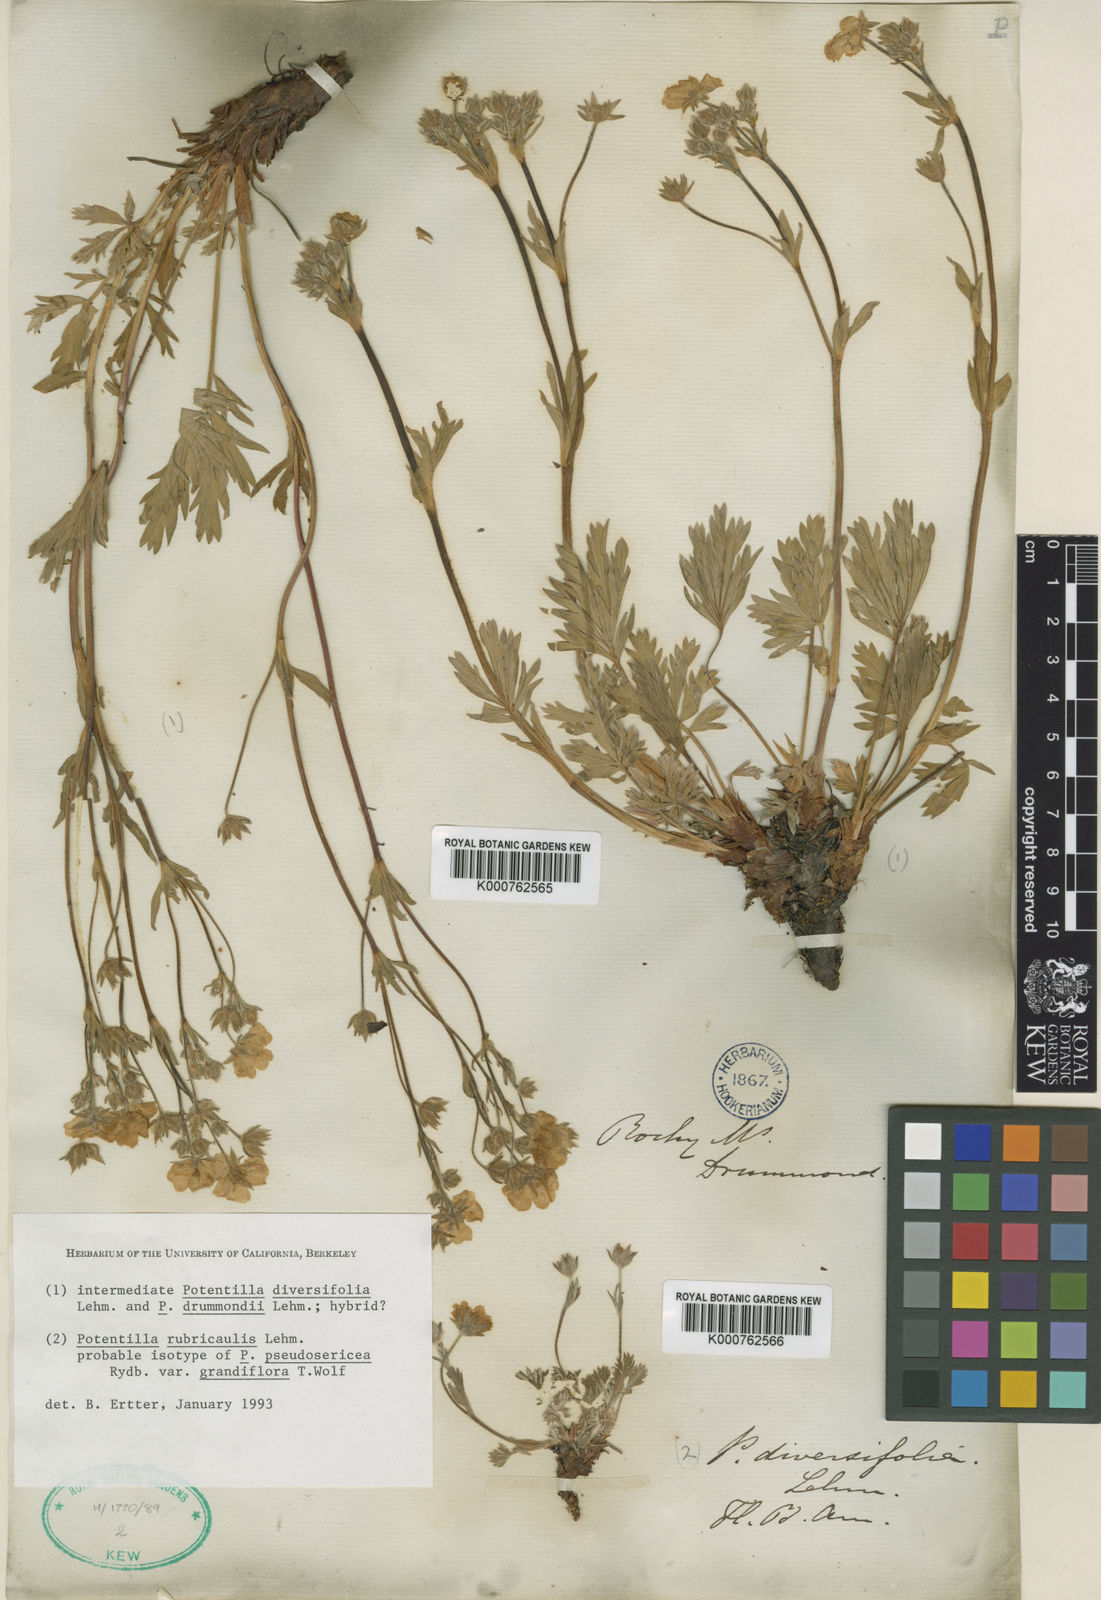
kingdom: Plantae
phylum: Tracheophyta
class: Magnoliopsida
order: Rosales
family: Rosaceae
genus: Potentilla
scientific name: Potentilla rubricaulis
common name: Red-stemmed cinquefoil
